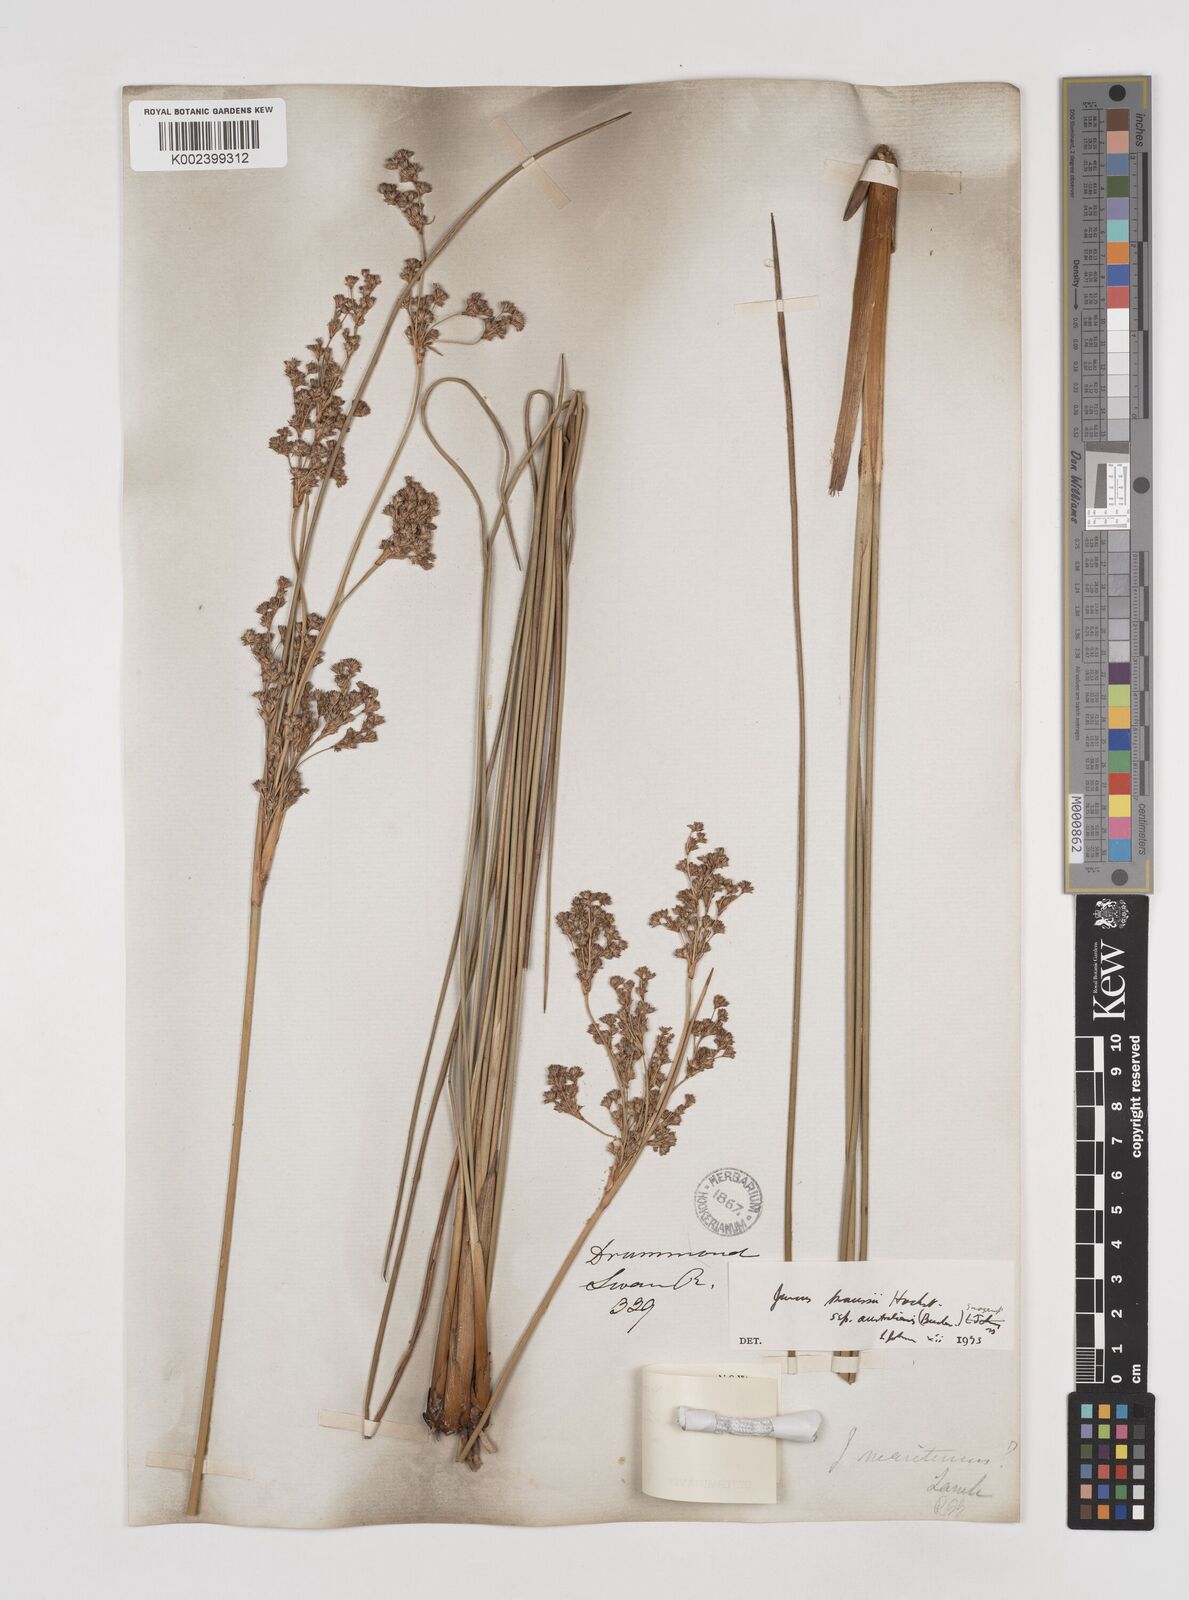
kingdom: Plantae
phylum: Tracheophyta
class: Liliopsida
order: Poales
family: Juncaceae
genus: Juncus
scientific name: Juncus kraussii
